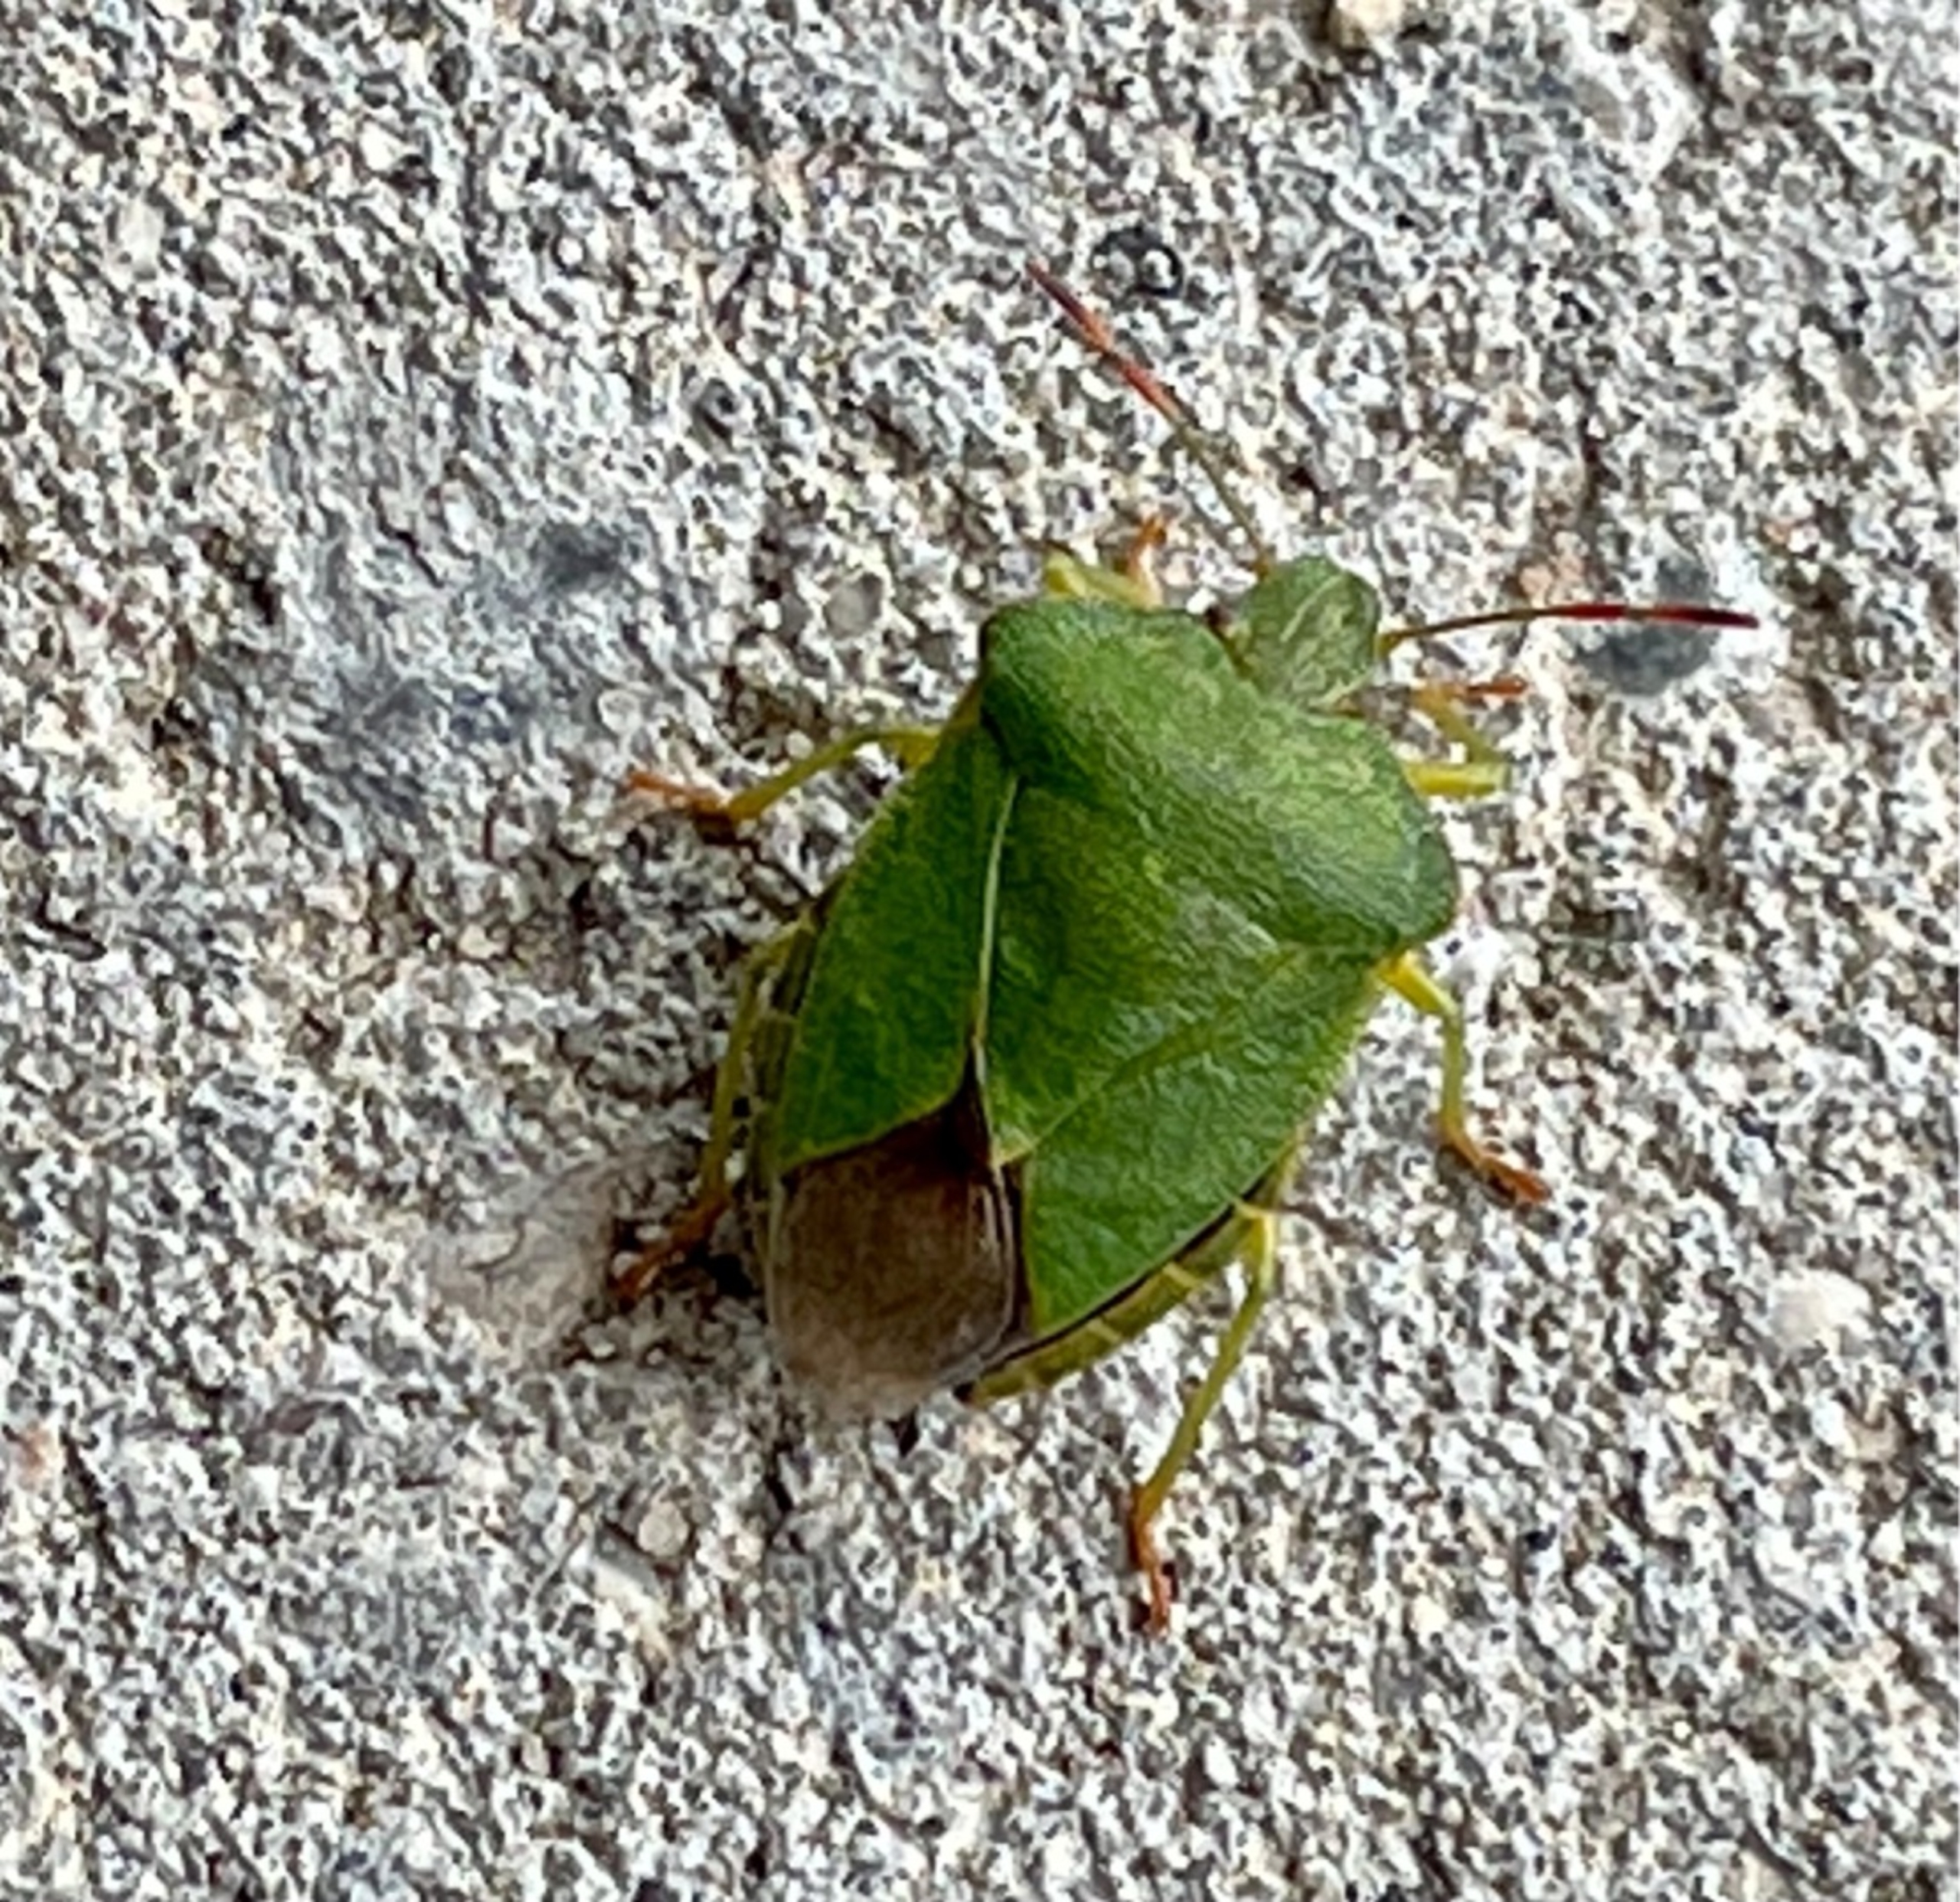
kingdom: Animalia
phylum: Arthropoda
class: Insecta
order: Hemiptera
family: Pentatomidae
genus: Palomena
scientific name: Palomena prasina
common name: Grøn bredtæge
